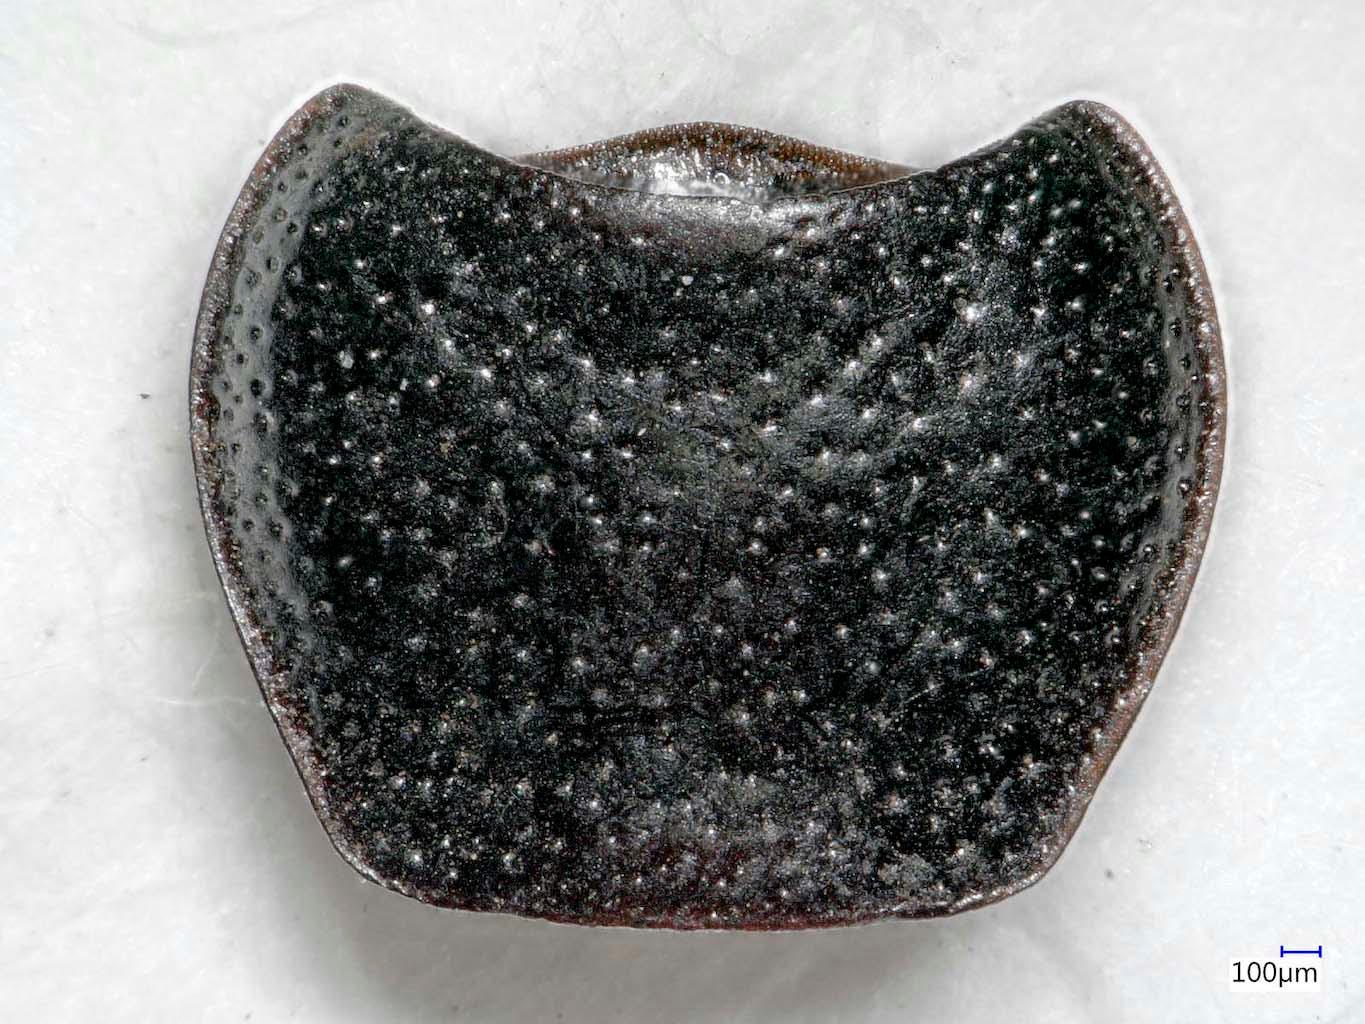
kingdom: Animalia
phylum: Arthropoda
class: Insecta
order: Coleoptera
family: Carabidae
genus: Dicheirus
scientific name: Dicheirus dilatatus
